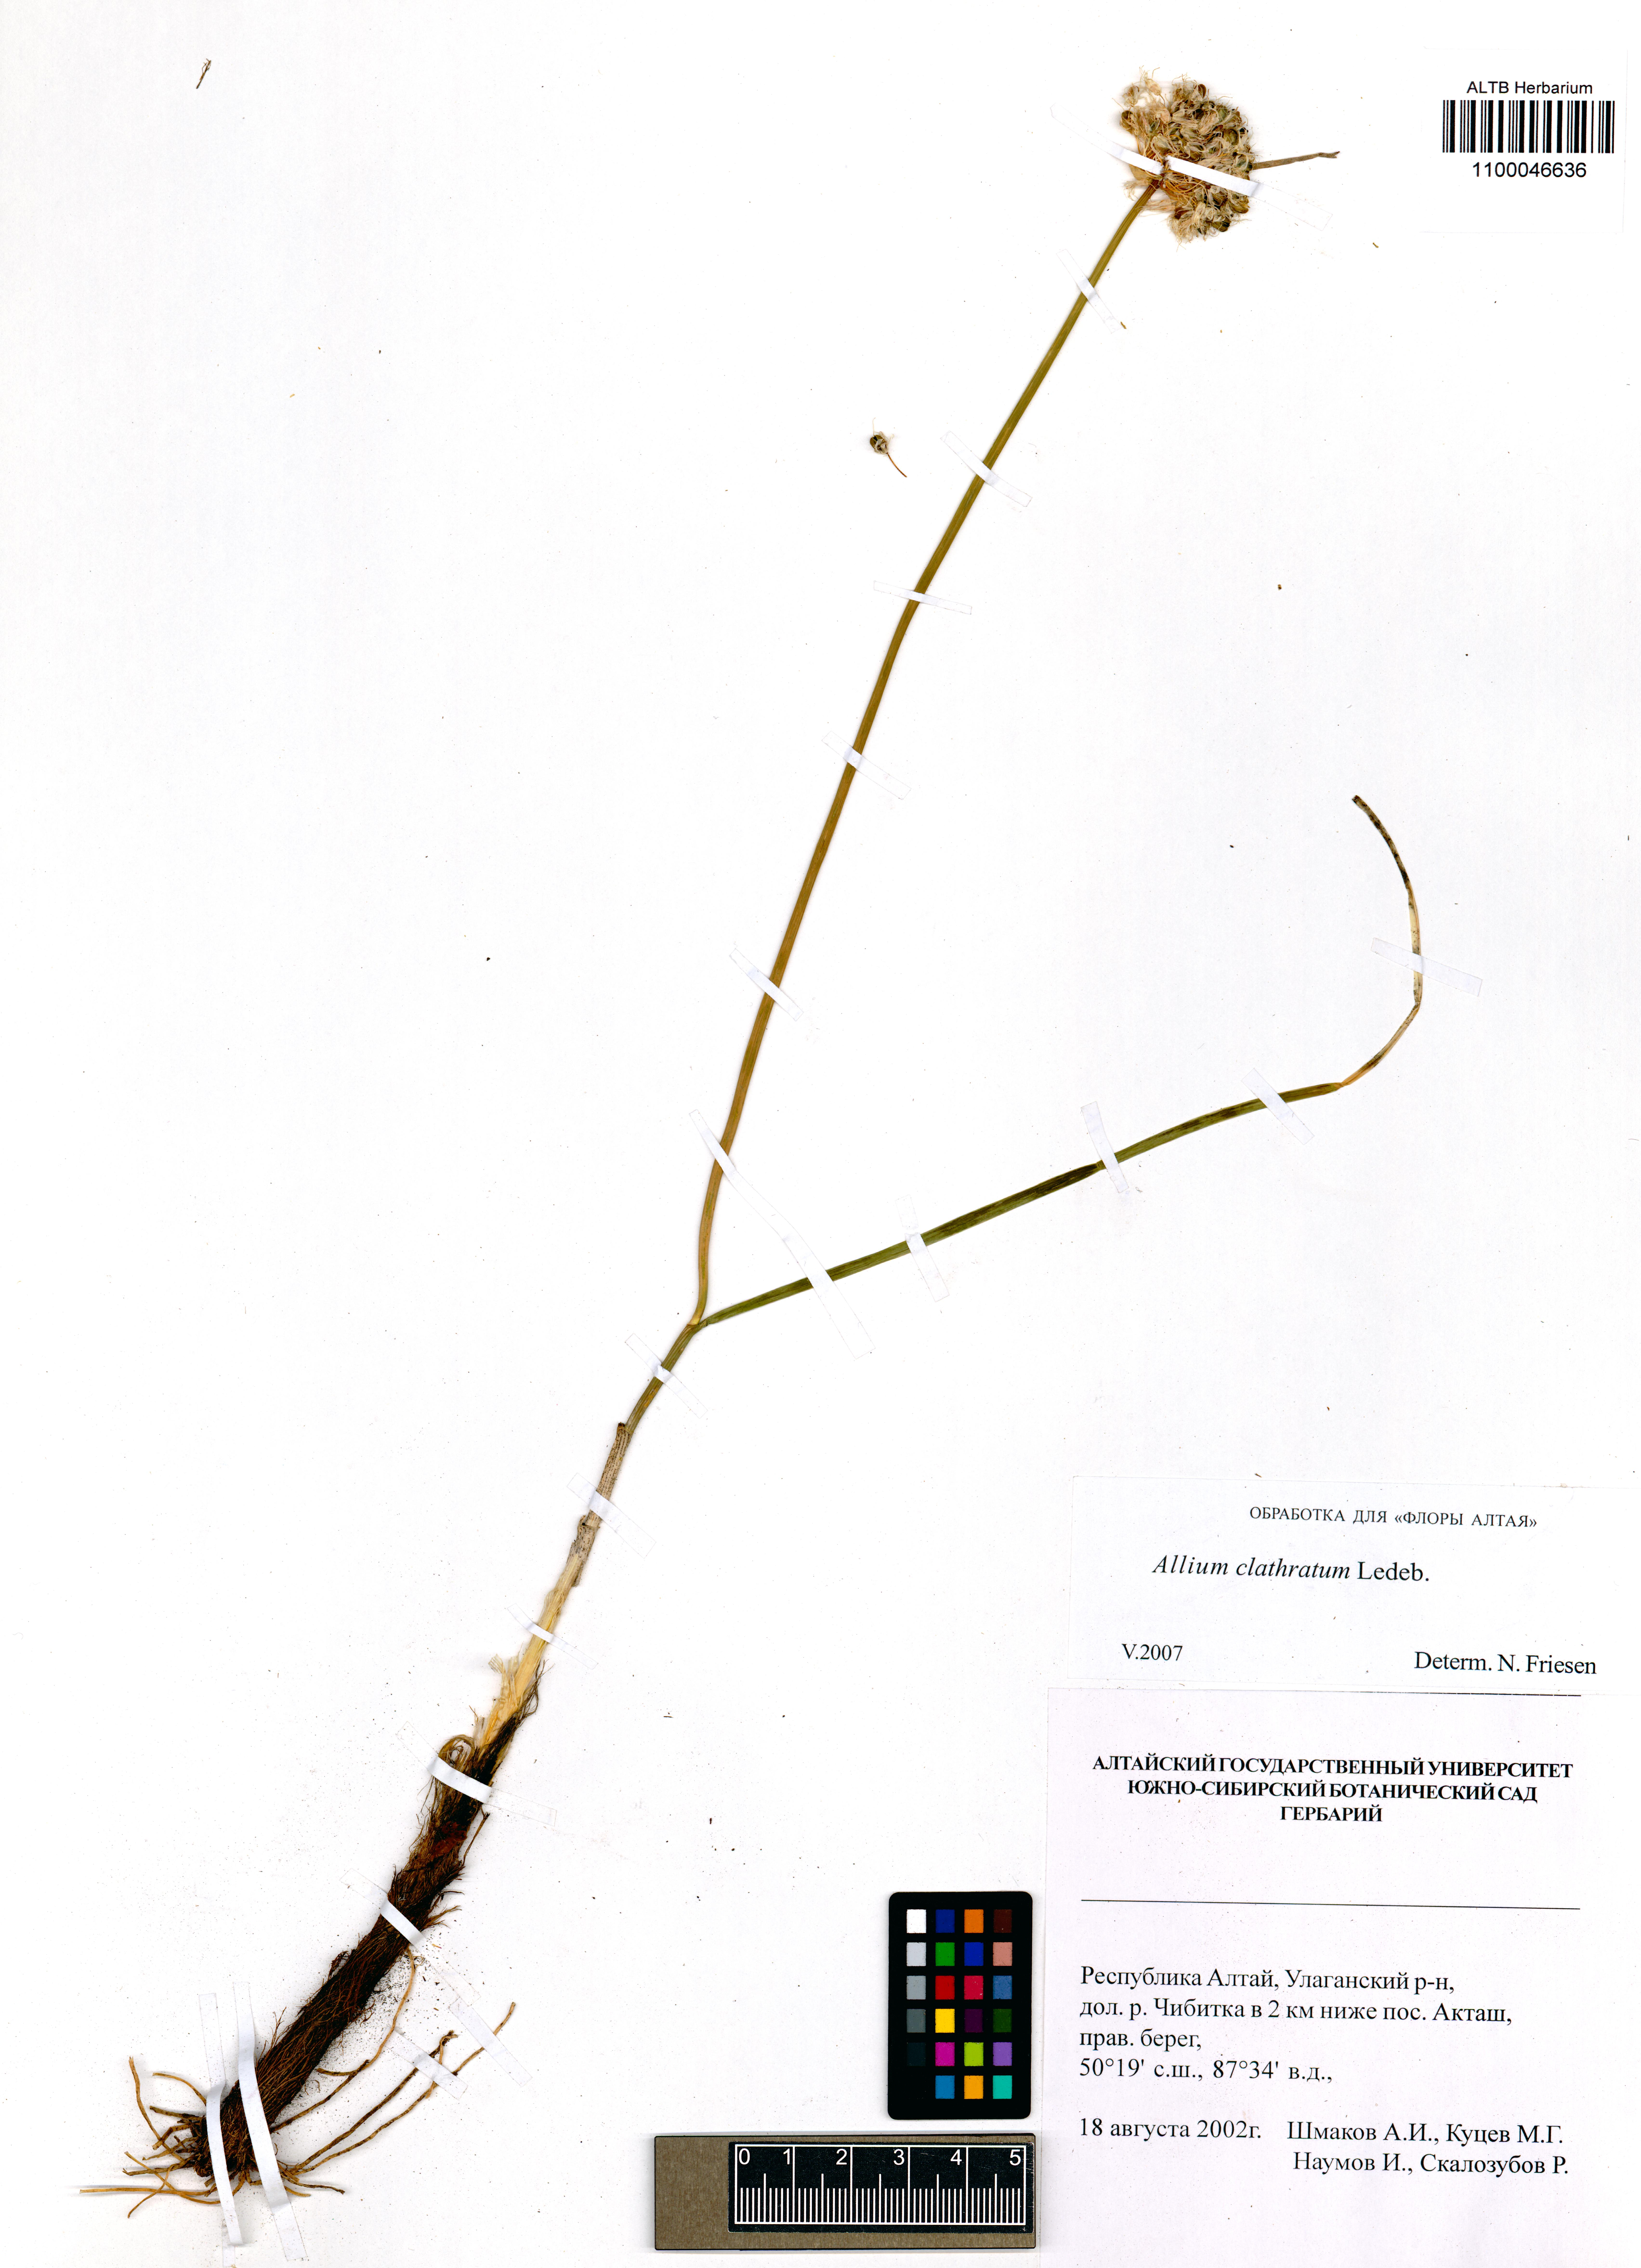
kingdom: Plantae
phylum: Tracheophyta
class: Liliopsida
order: Asparagales
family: Amaryllidaceae
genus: Allium
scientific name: Allium clathratum
